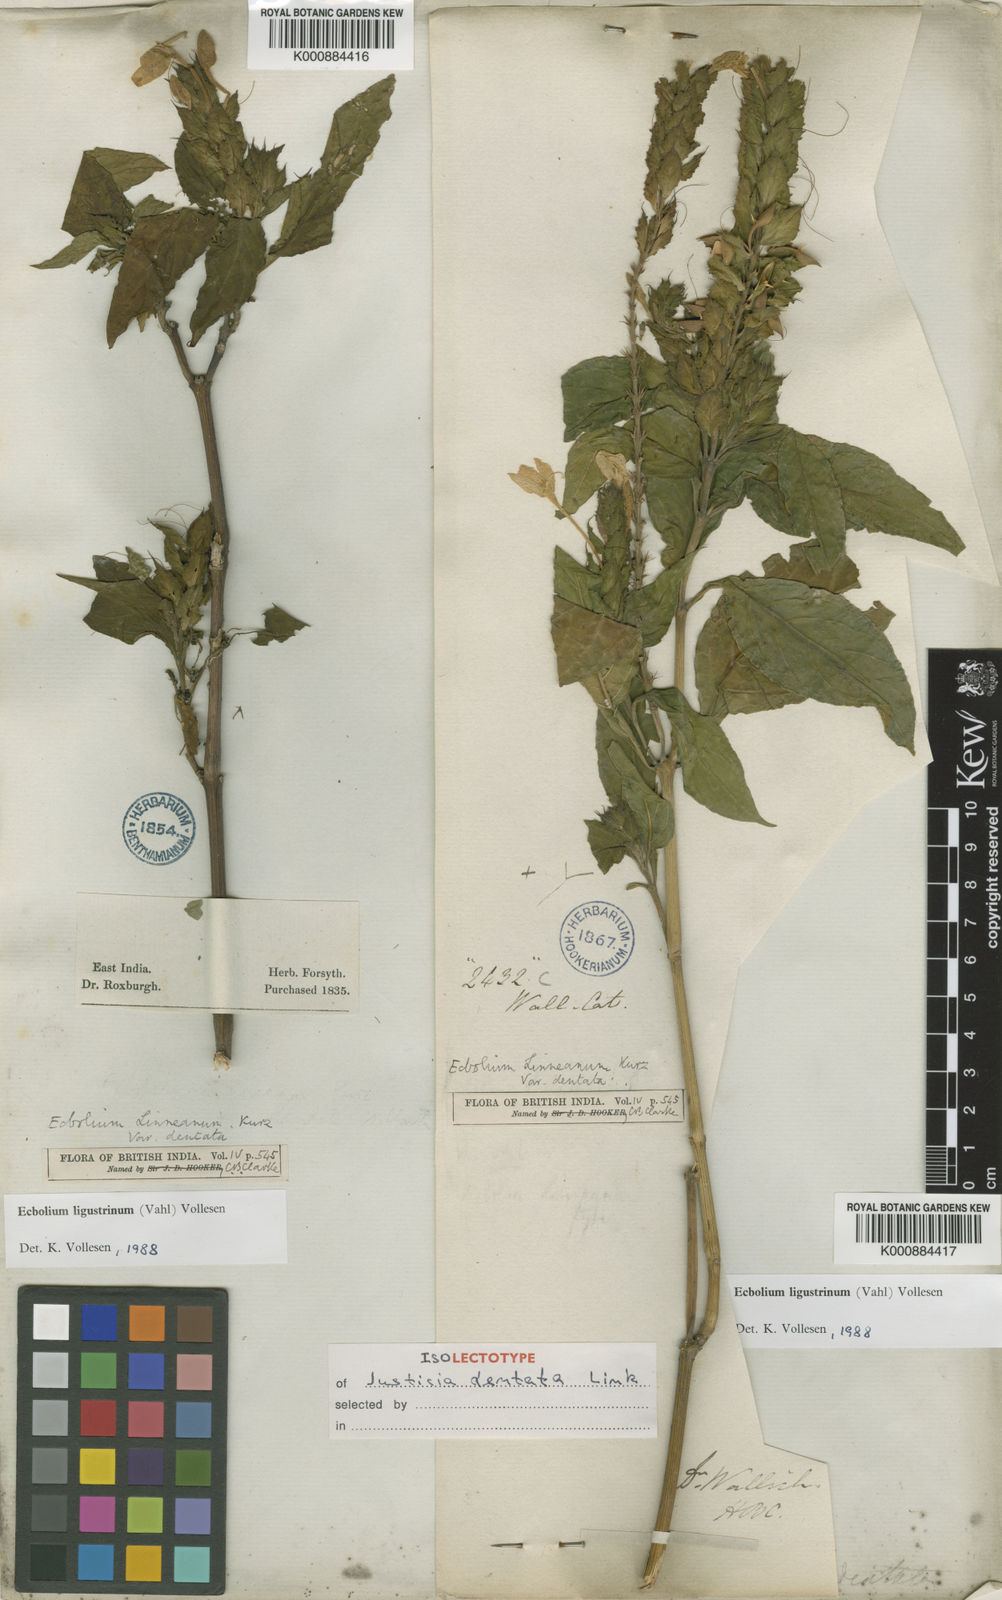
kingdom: Plantae
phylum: Tracheophyta
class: Magnoliopsida
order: Lamiales
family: Acanthaceae
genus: Ecbolium
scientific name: Ecbolium ligustrinum
